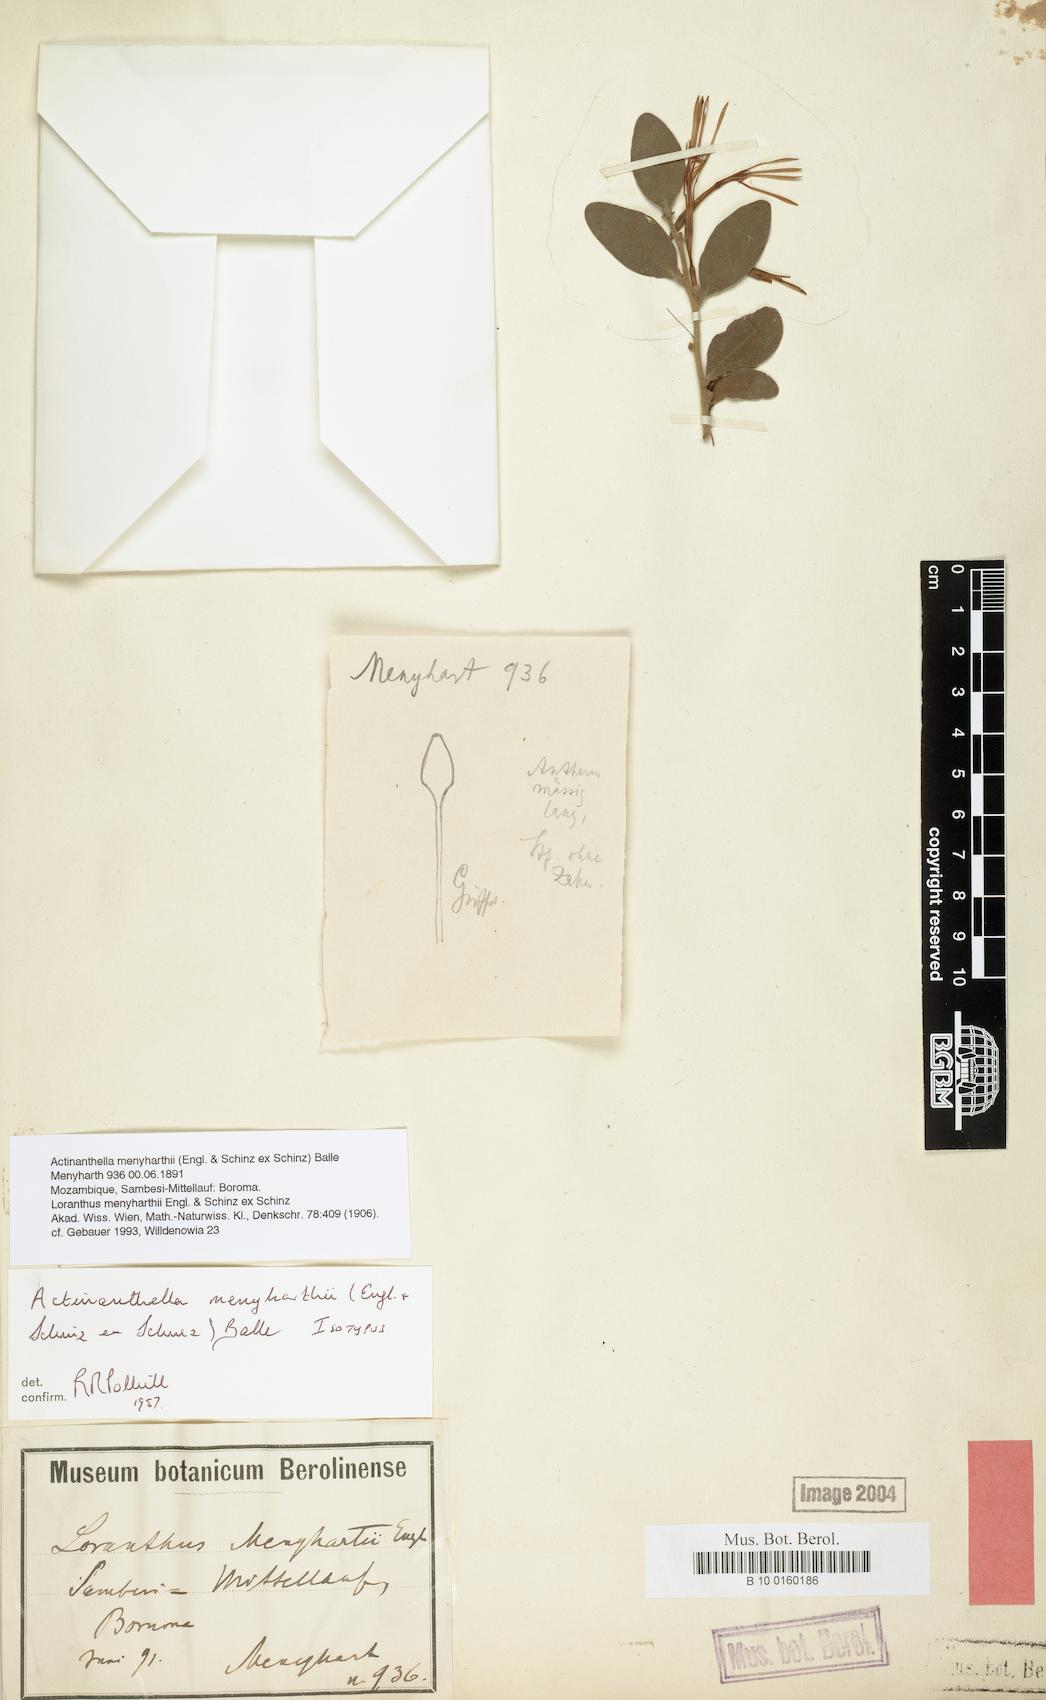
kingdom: Plantae
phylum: Tracheophyta
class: Magnoliopsida
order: Santalales
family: Loranthaceae
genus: Actinanthella
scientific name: Actinanthella menyharthii
